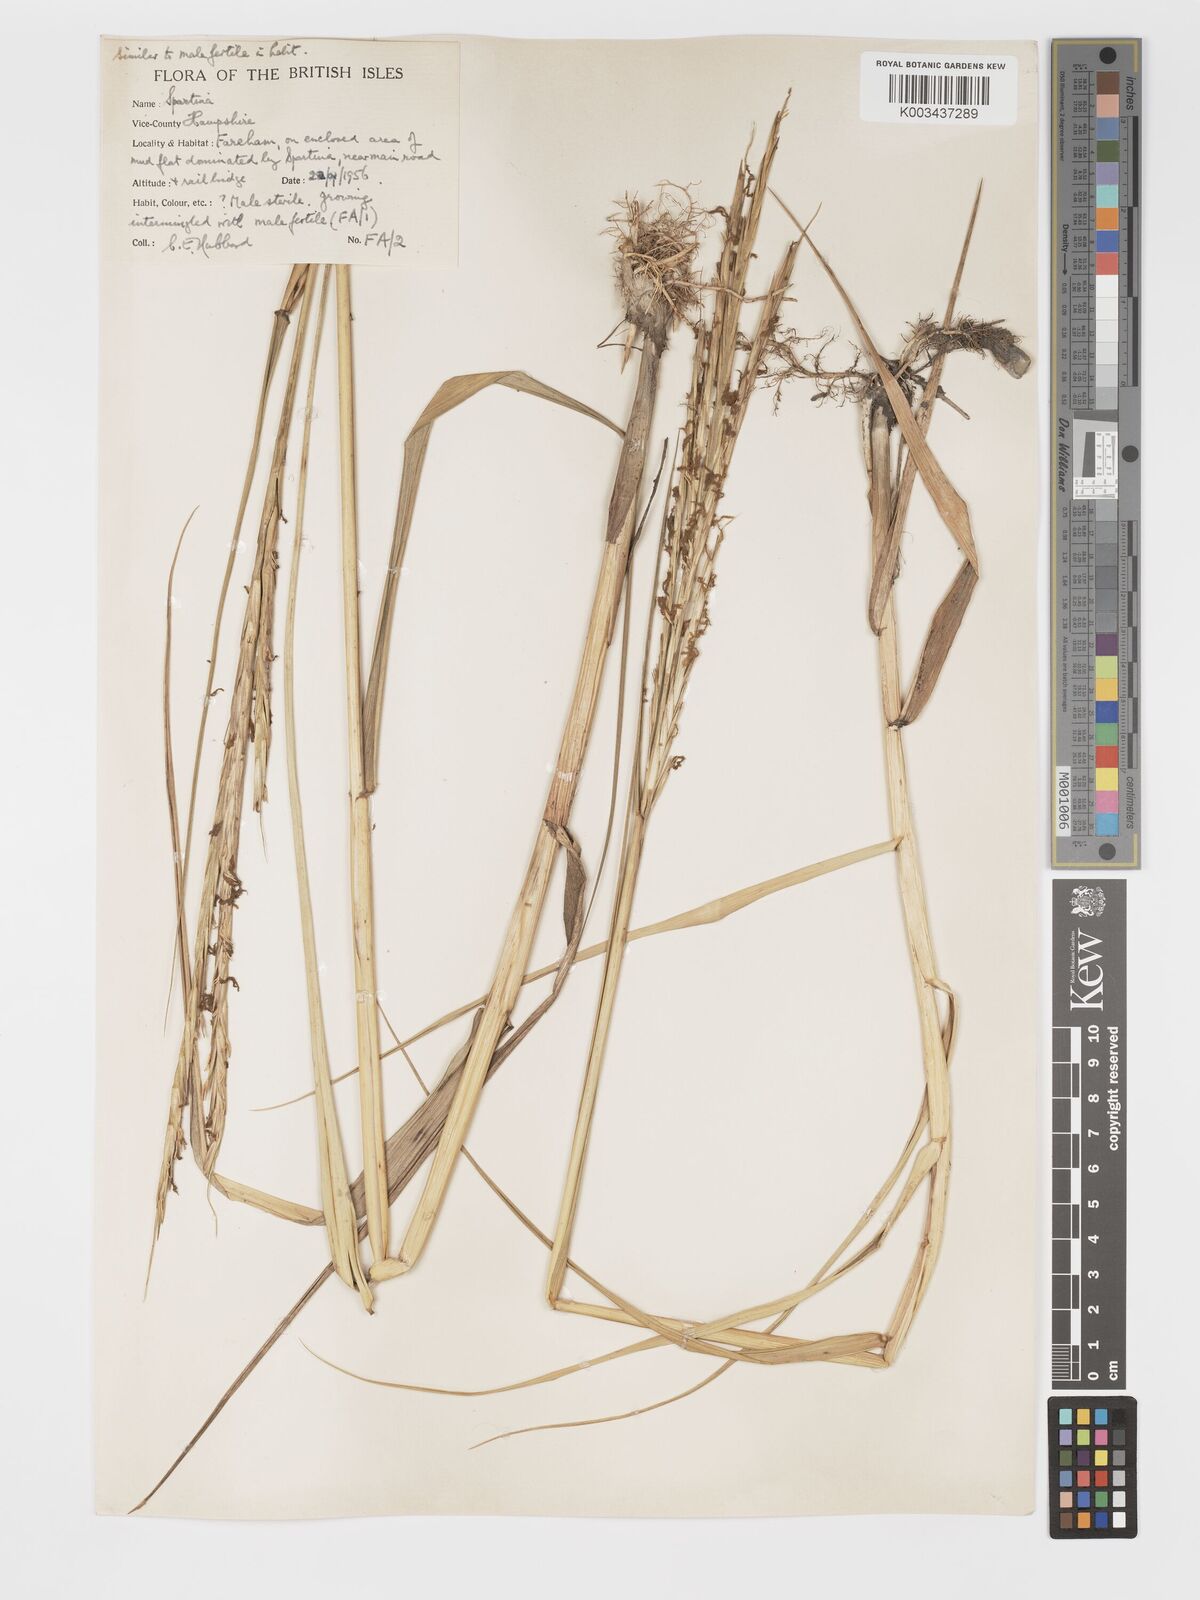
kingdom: Plantae
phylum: Tracheophyta
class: Liliopsida
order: Poales
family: Poaceae
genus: Sporobolus
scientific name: Sporobolus townsendii
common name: Townsend's cordgrass
